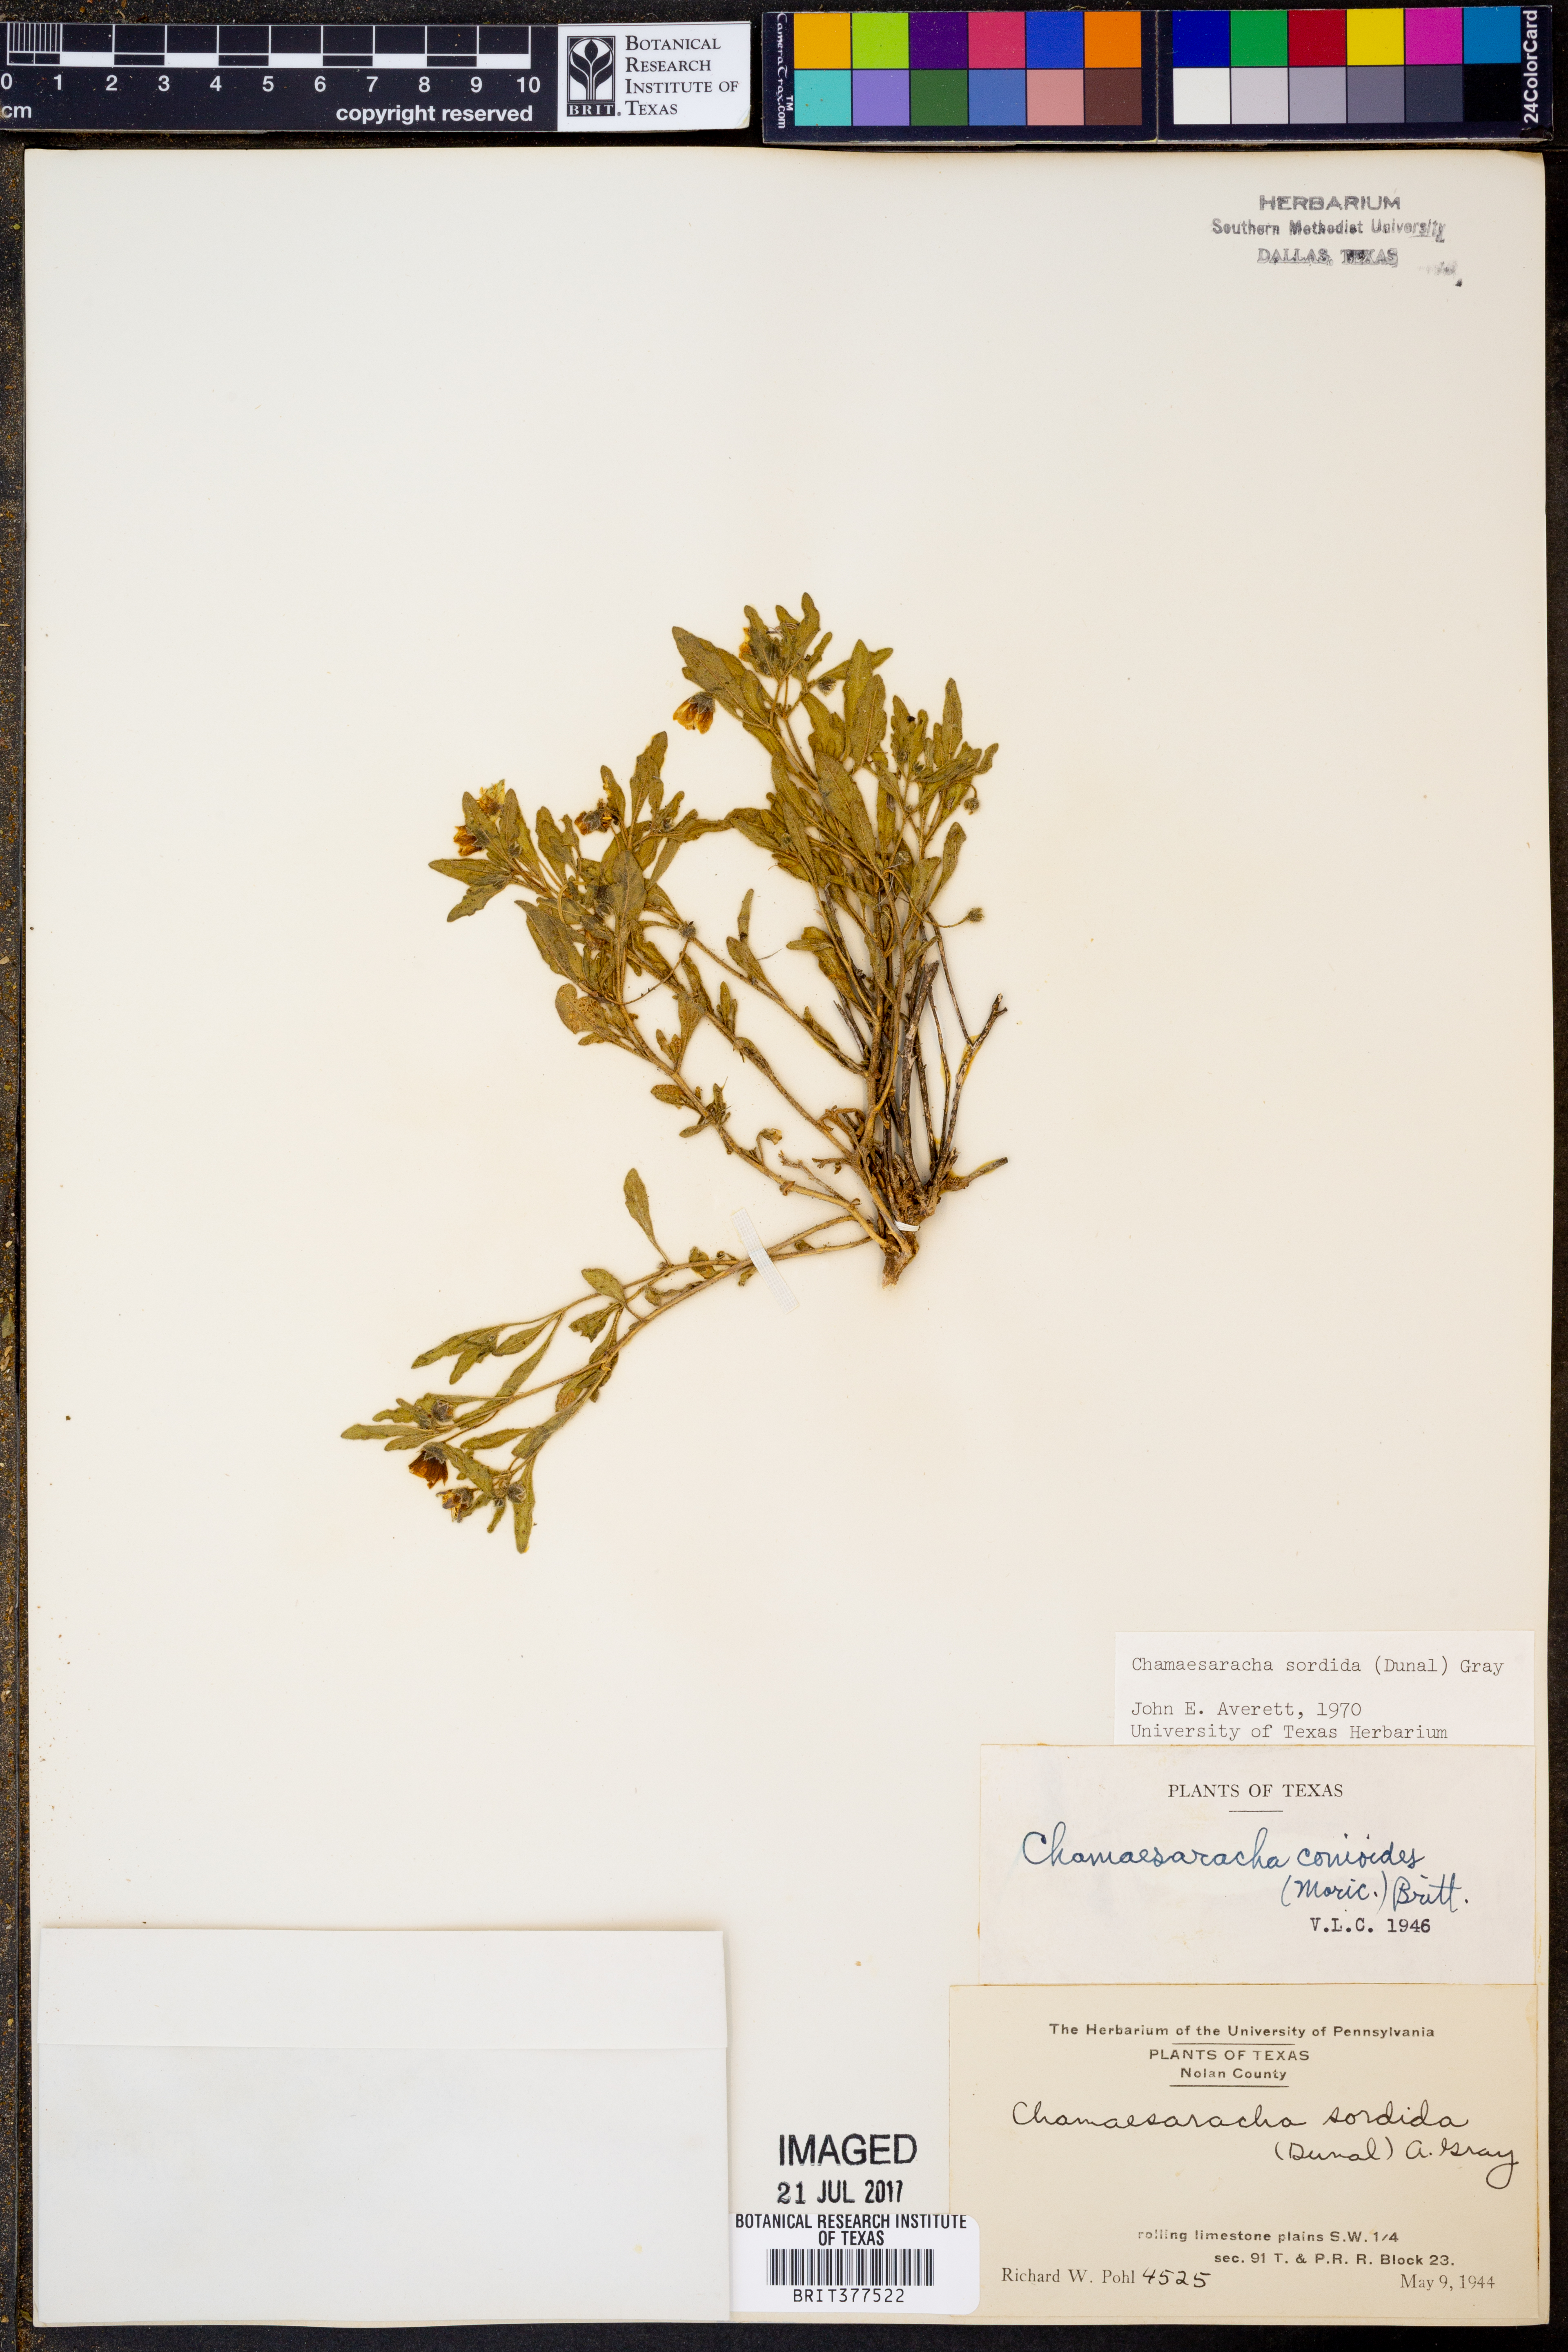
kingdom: Plantae
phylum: Tracheophyta
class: Magnoliopsida
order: Solanales
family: Solanaceae
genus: Chamaesaracha
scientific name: Chamaesaracha sordida
